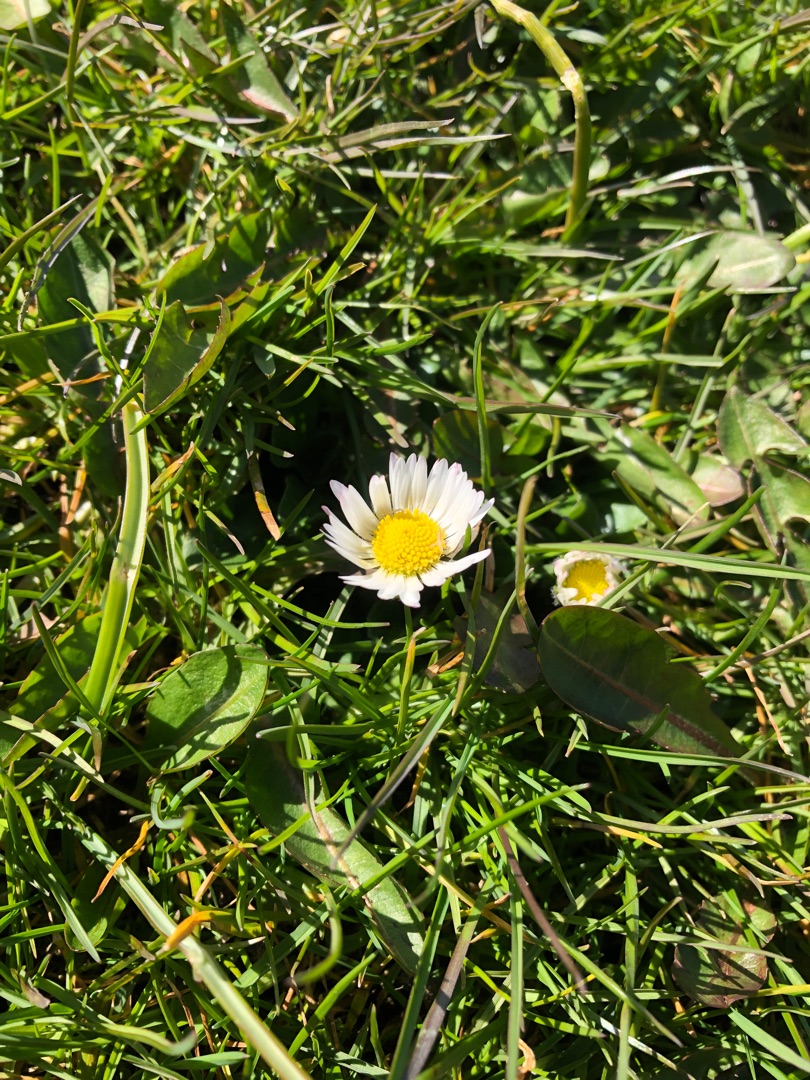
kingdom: Plantae
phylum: Tracheophyta
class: Magnoliopsida
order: Asterales
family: Asteraceae
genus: Bellis
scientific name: Bellis perennis
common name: Tusindfryd
